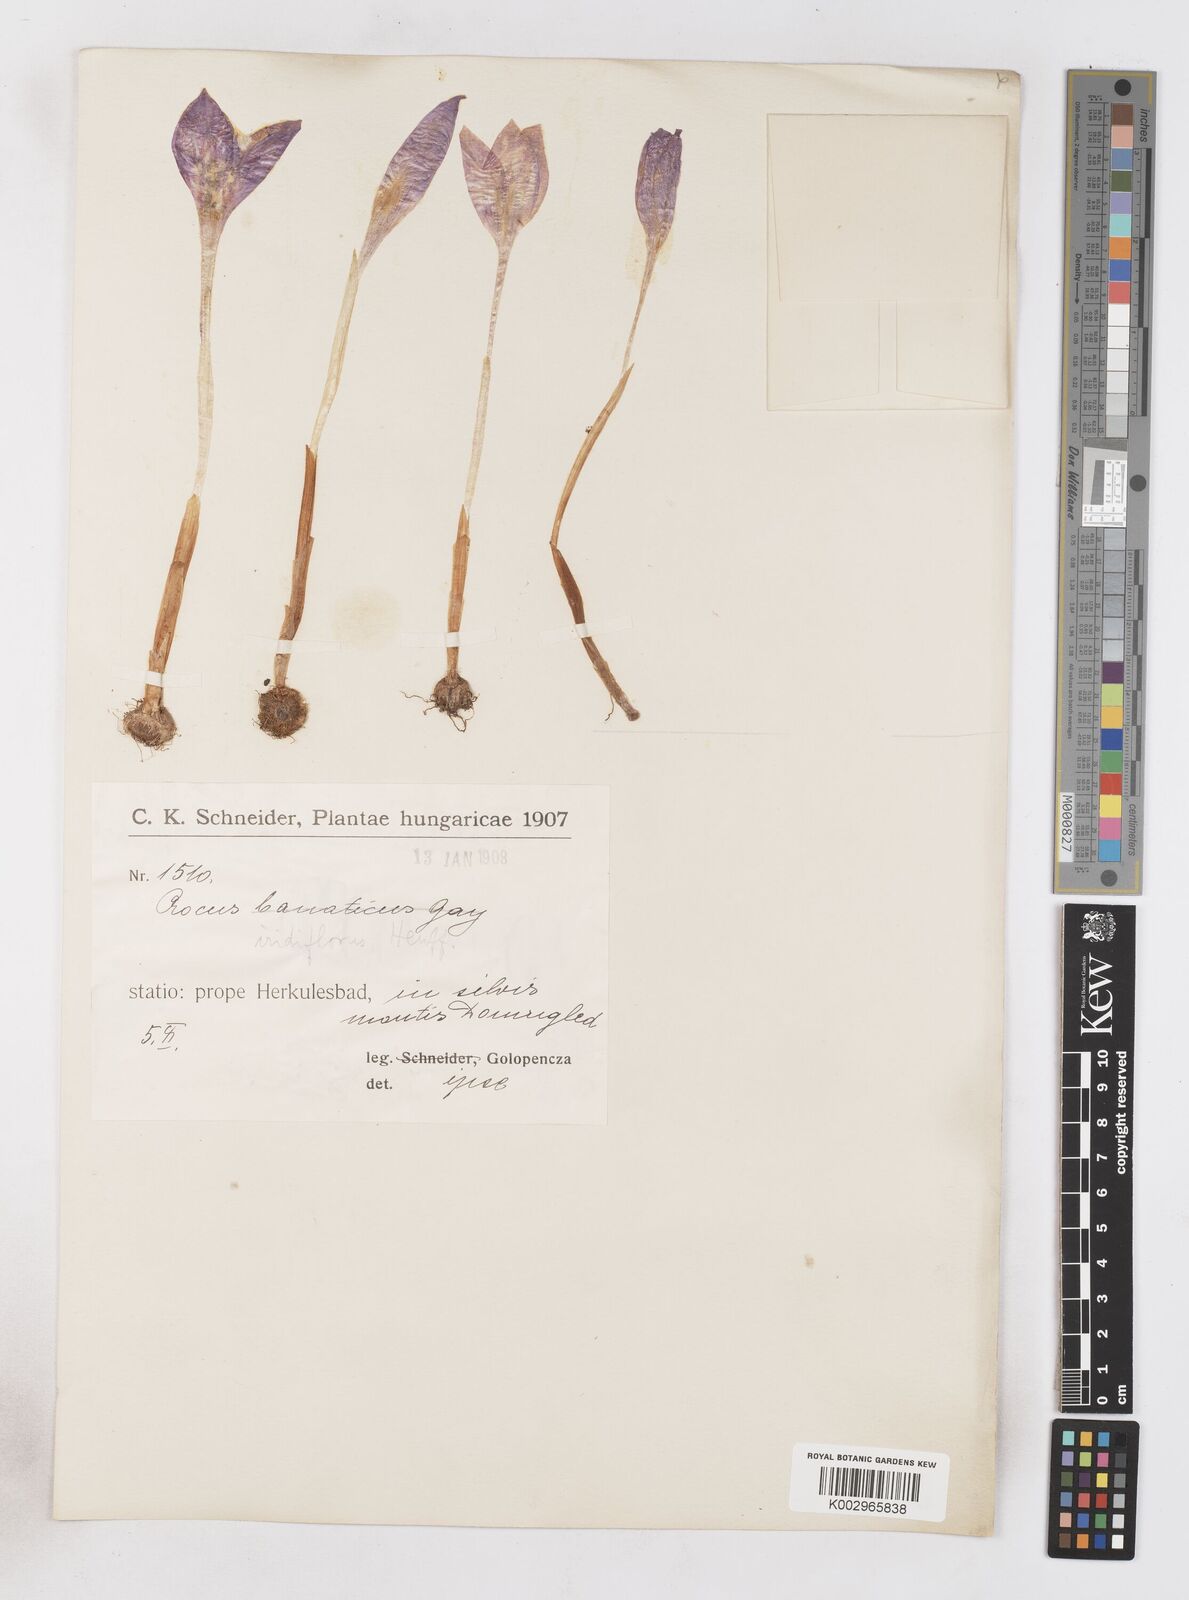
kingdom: Plantae
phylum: Tracheophyta
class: Liliopsida
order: Asparagales
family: Iridaceae
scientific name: Iridaceae
